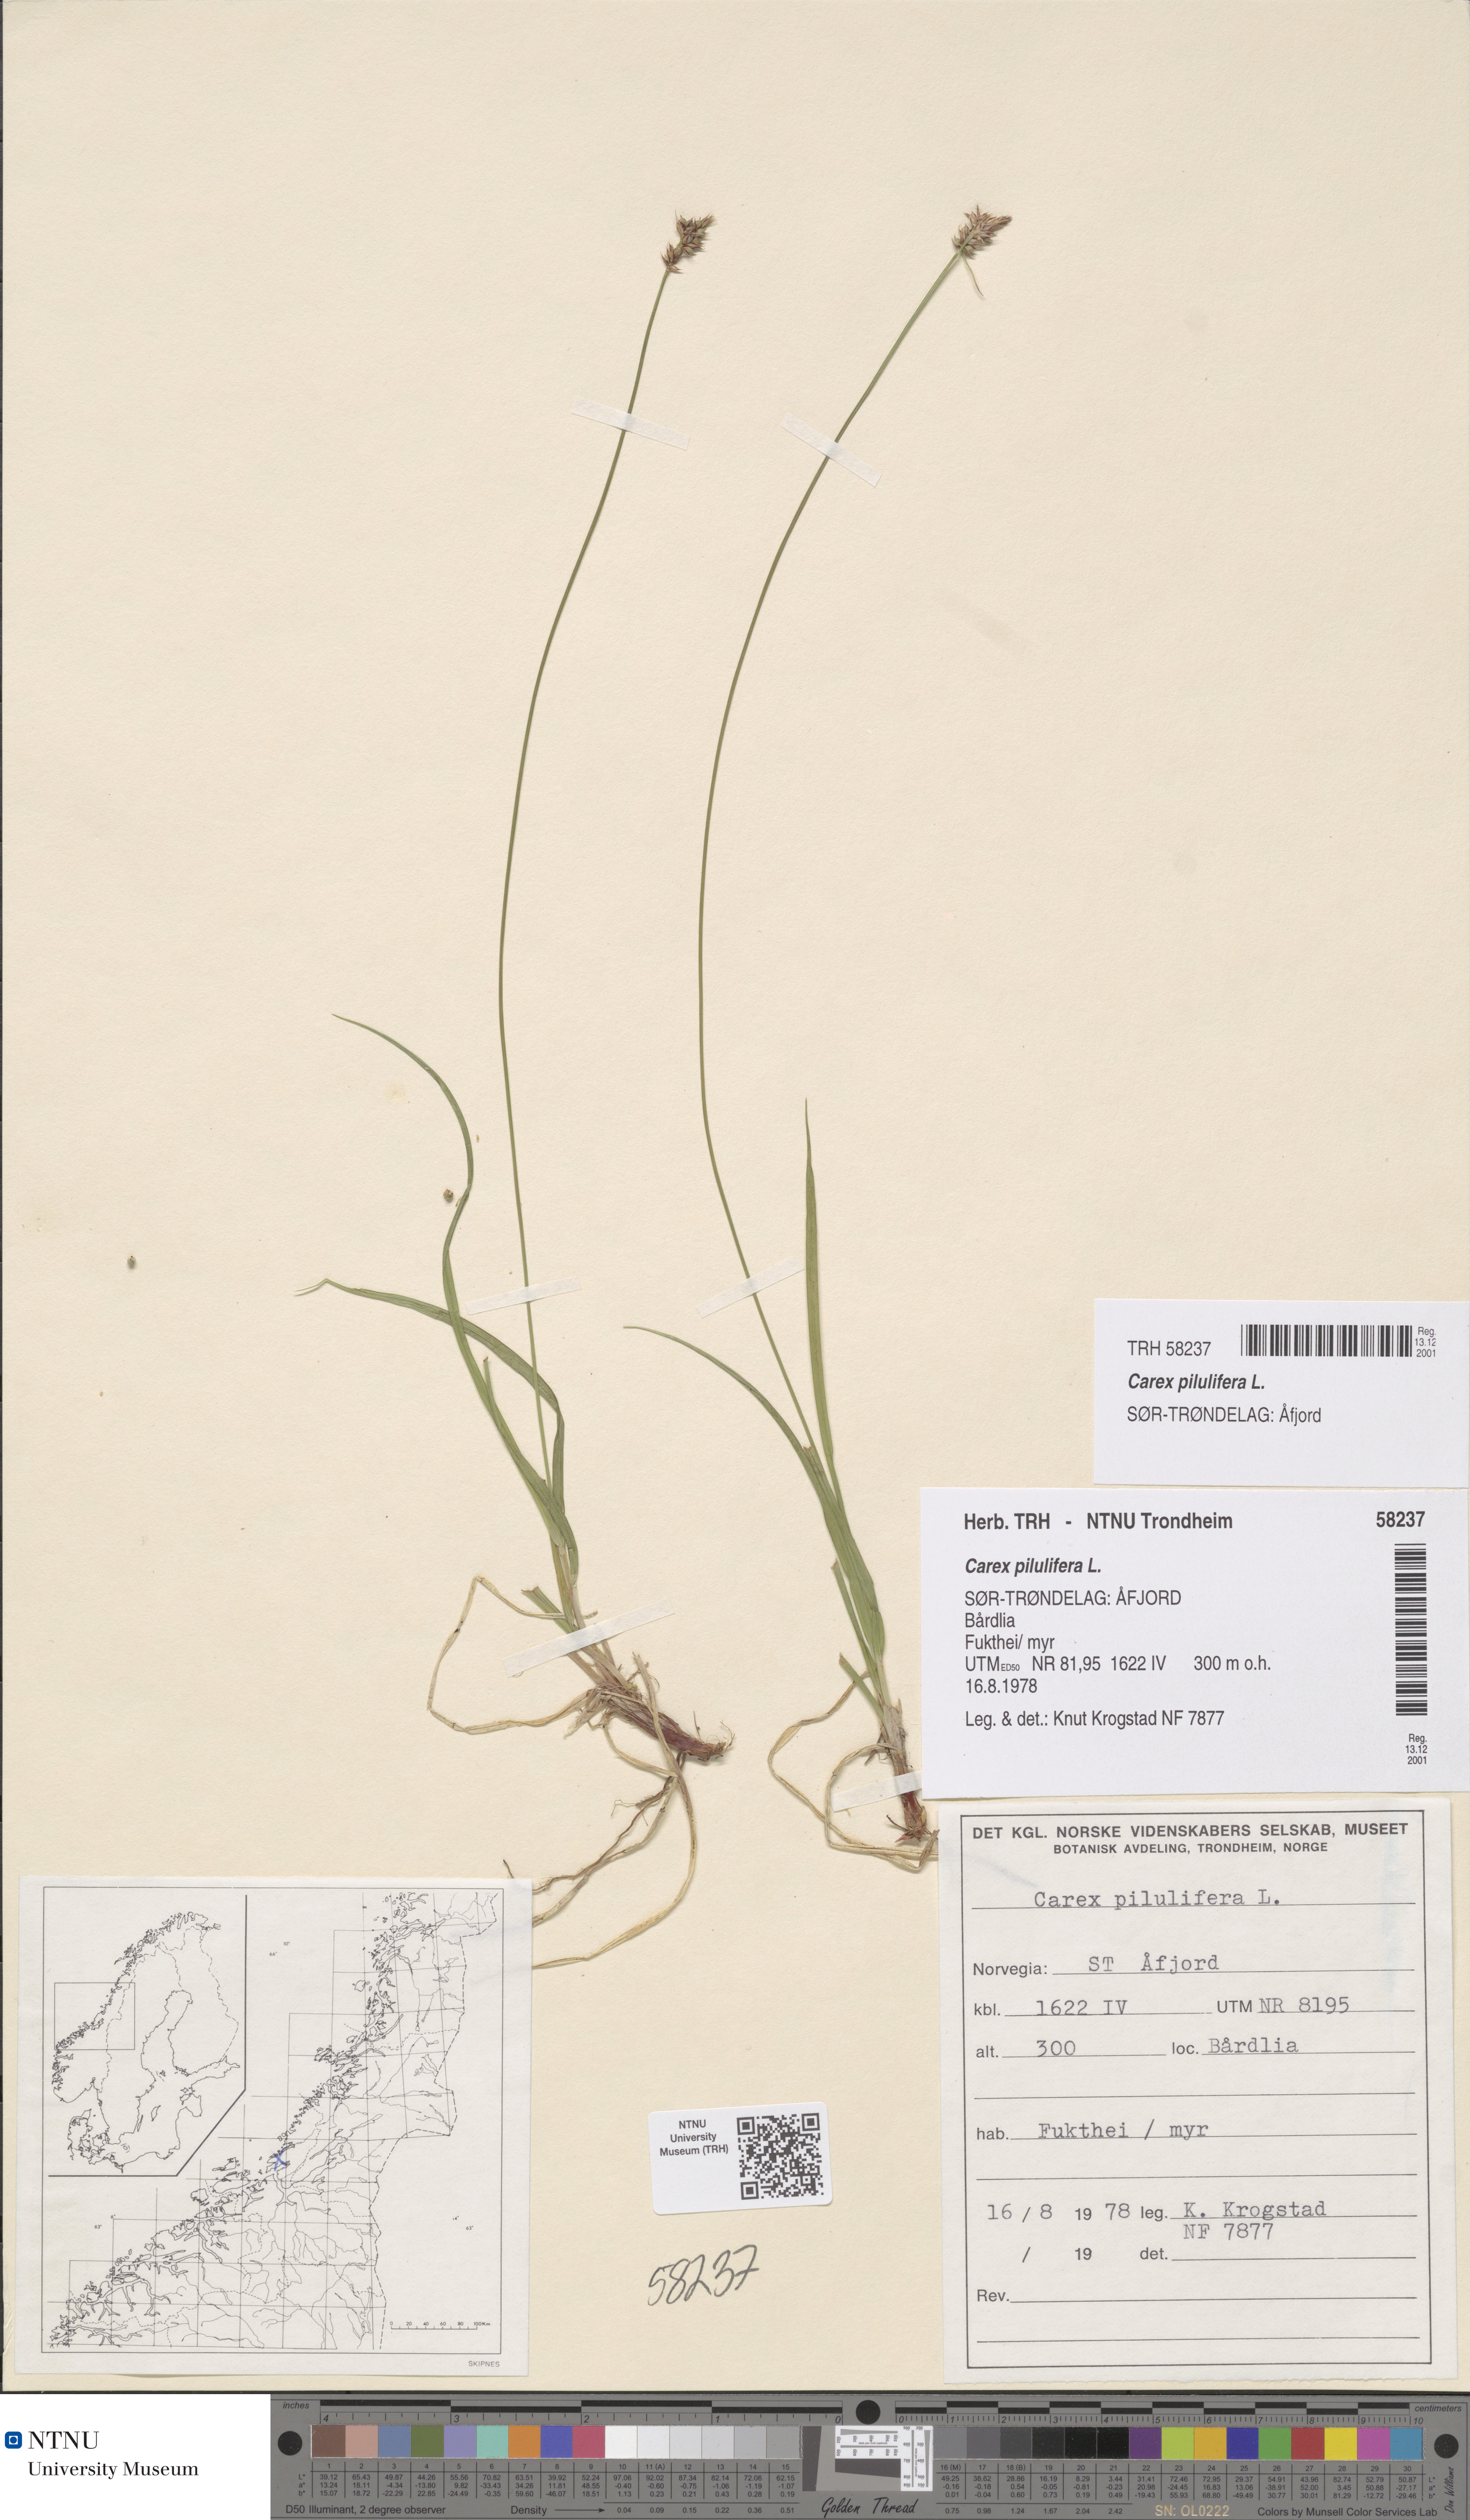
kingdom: Plantae
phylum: Tracheophyta
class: Liliopsida
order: Poales
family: Cyperaceae
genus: Carex
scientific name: Carex pilulifera
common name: Pill sedge
